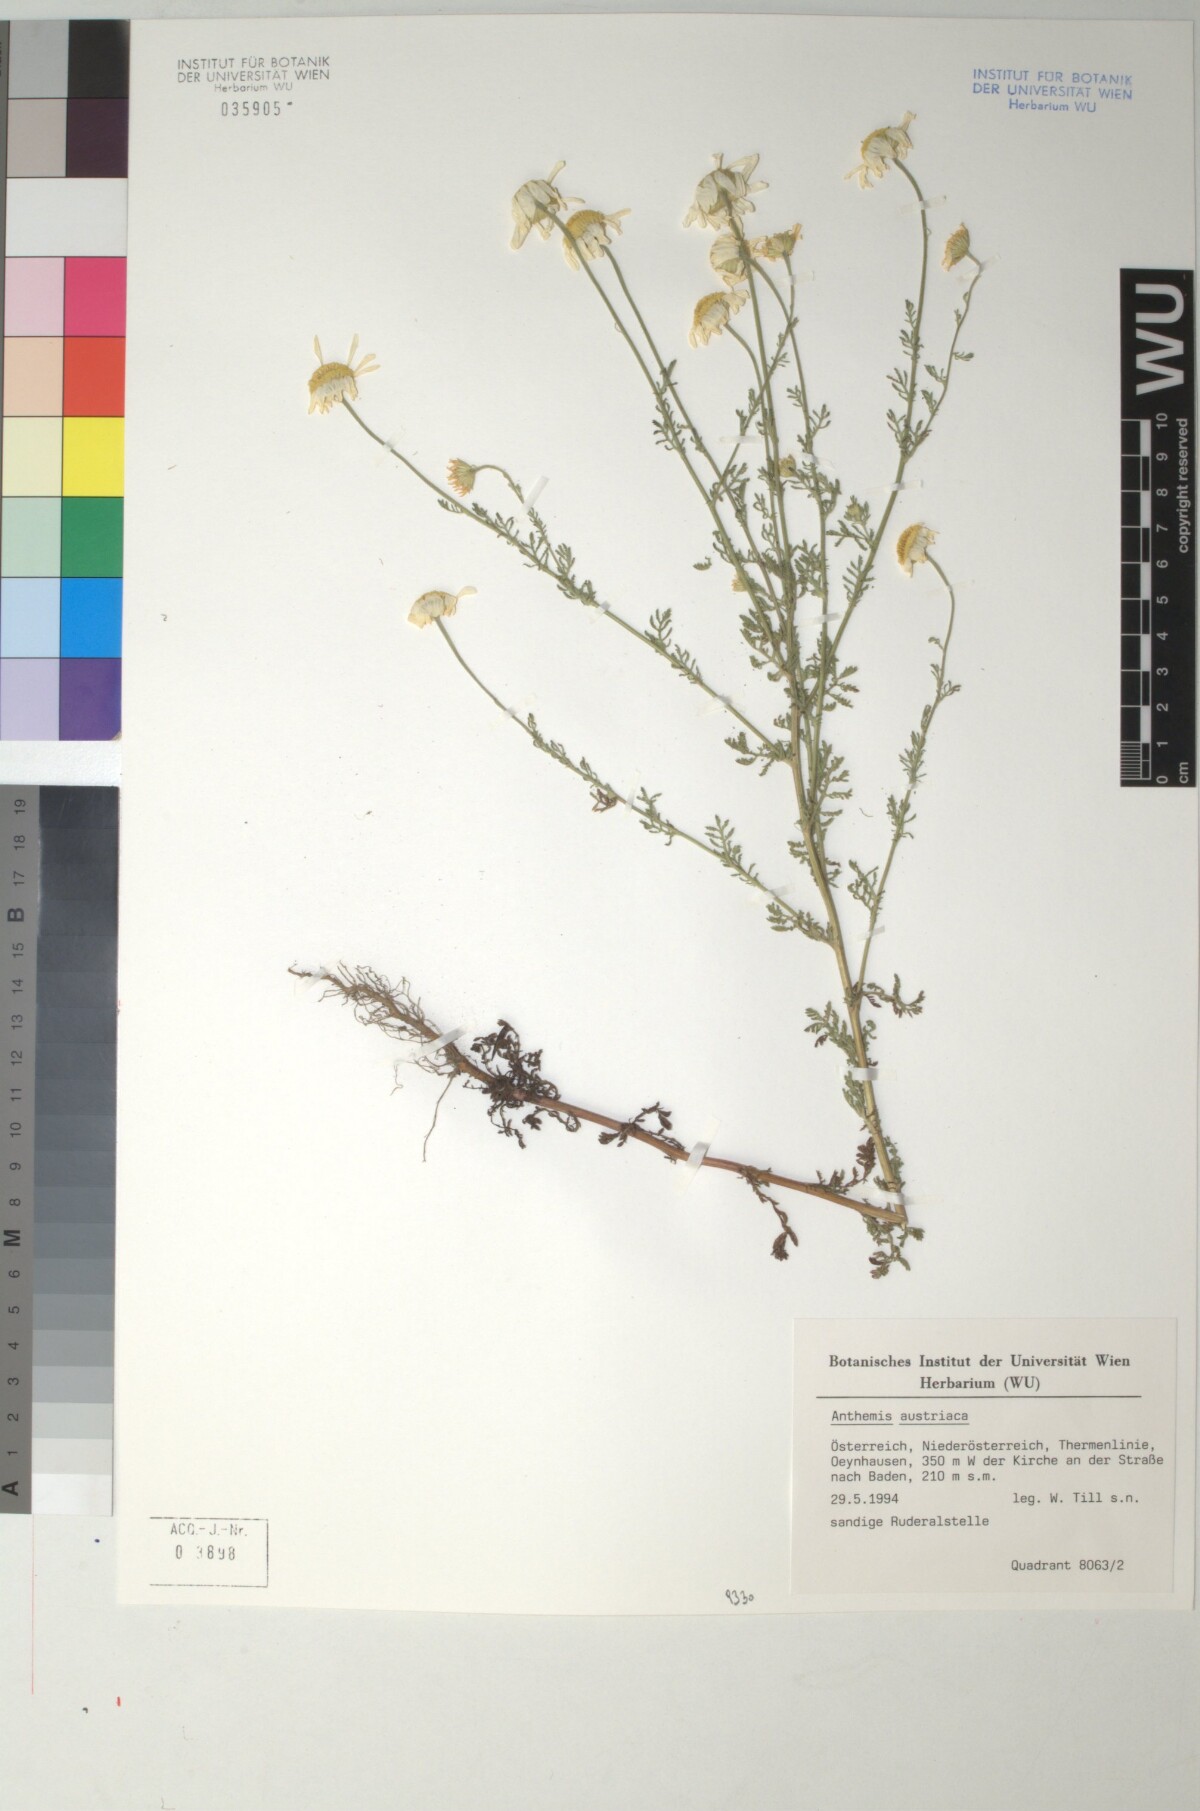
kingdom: Plantae
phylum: Tracheophyta
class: Magnoliopsida
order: Asterales
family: Asteraceae
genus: Cota
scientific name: Cota austriaca
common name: Austrian chamomile
